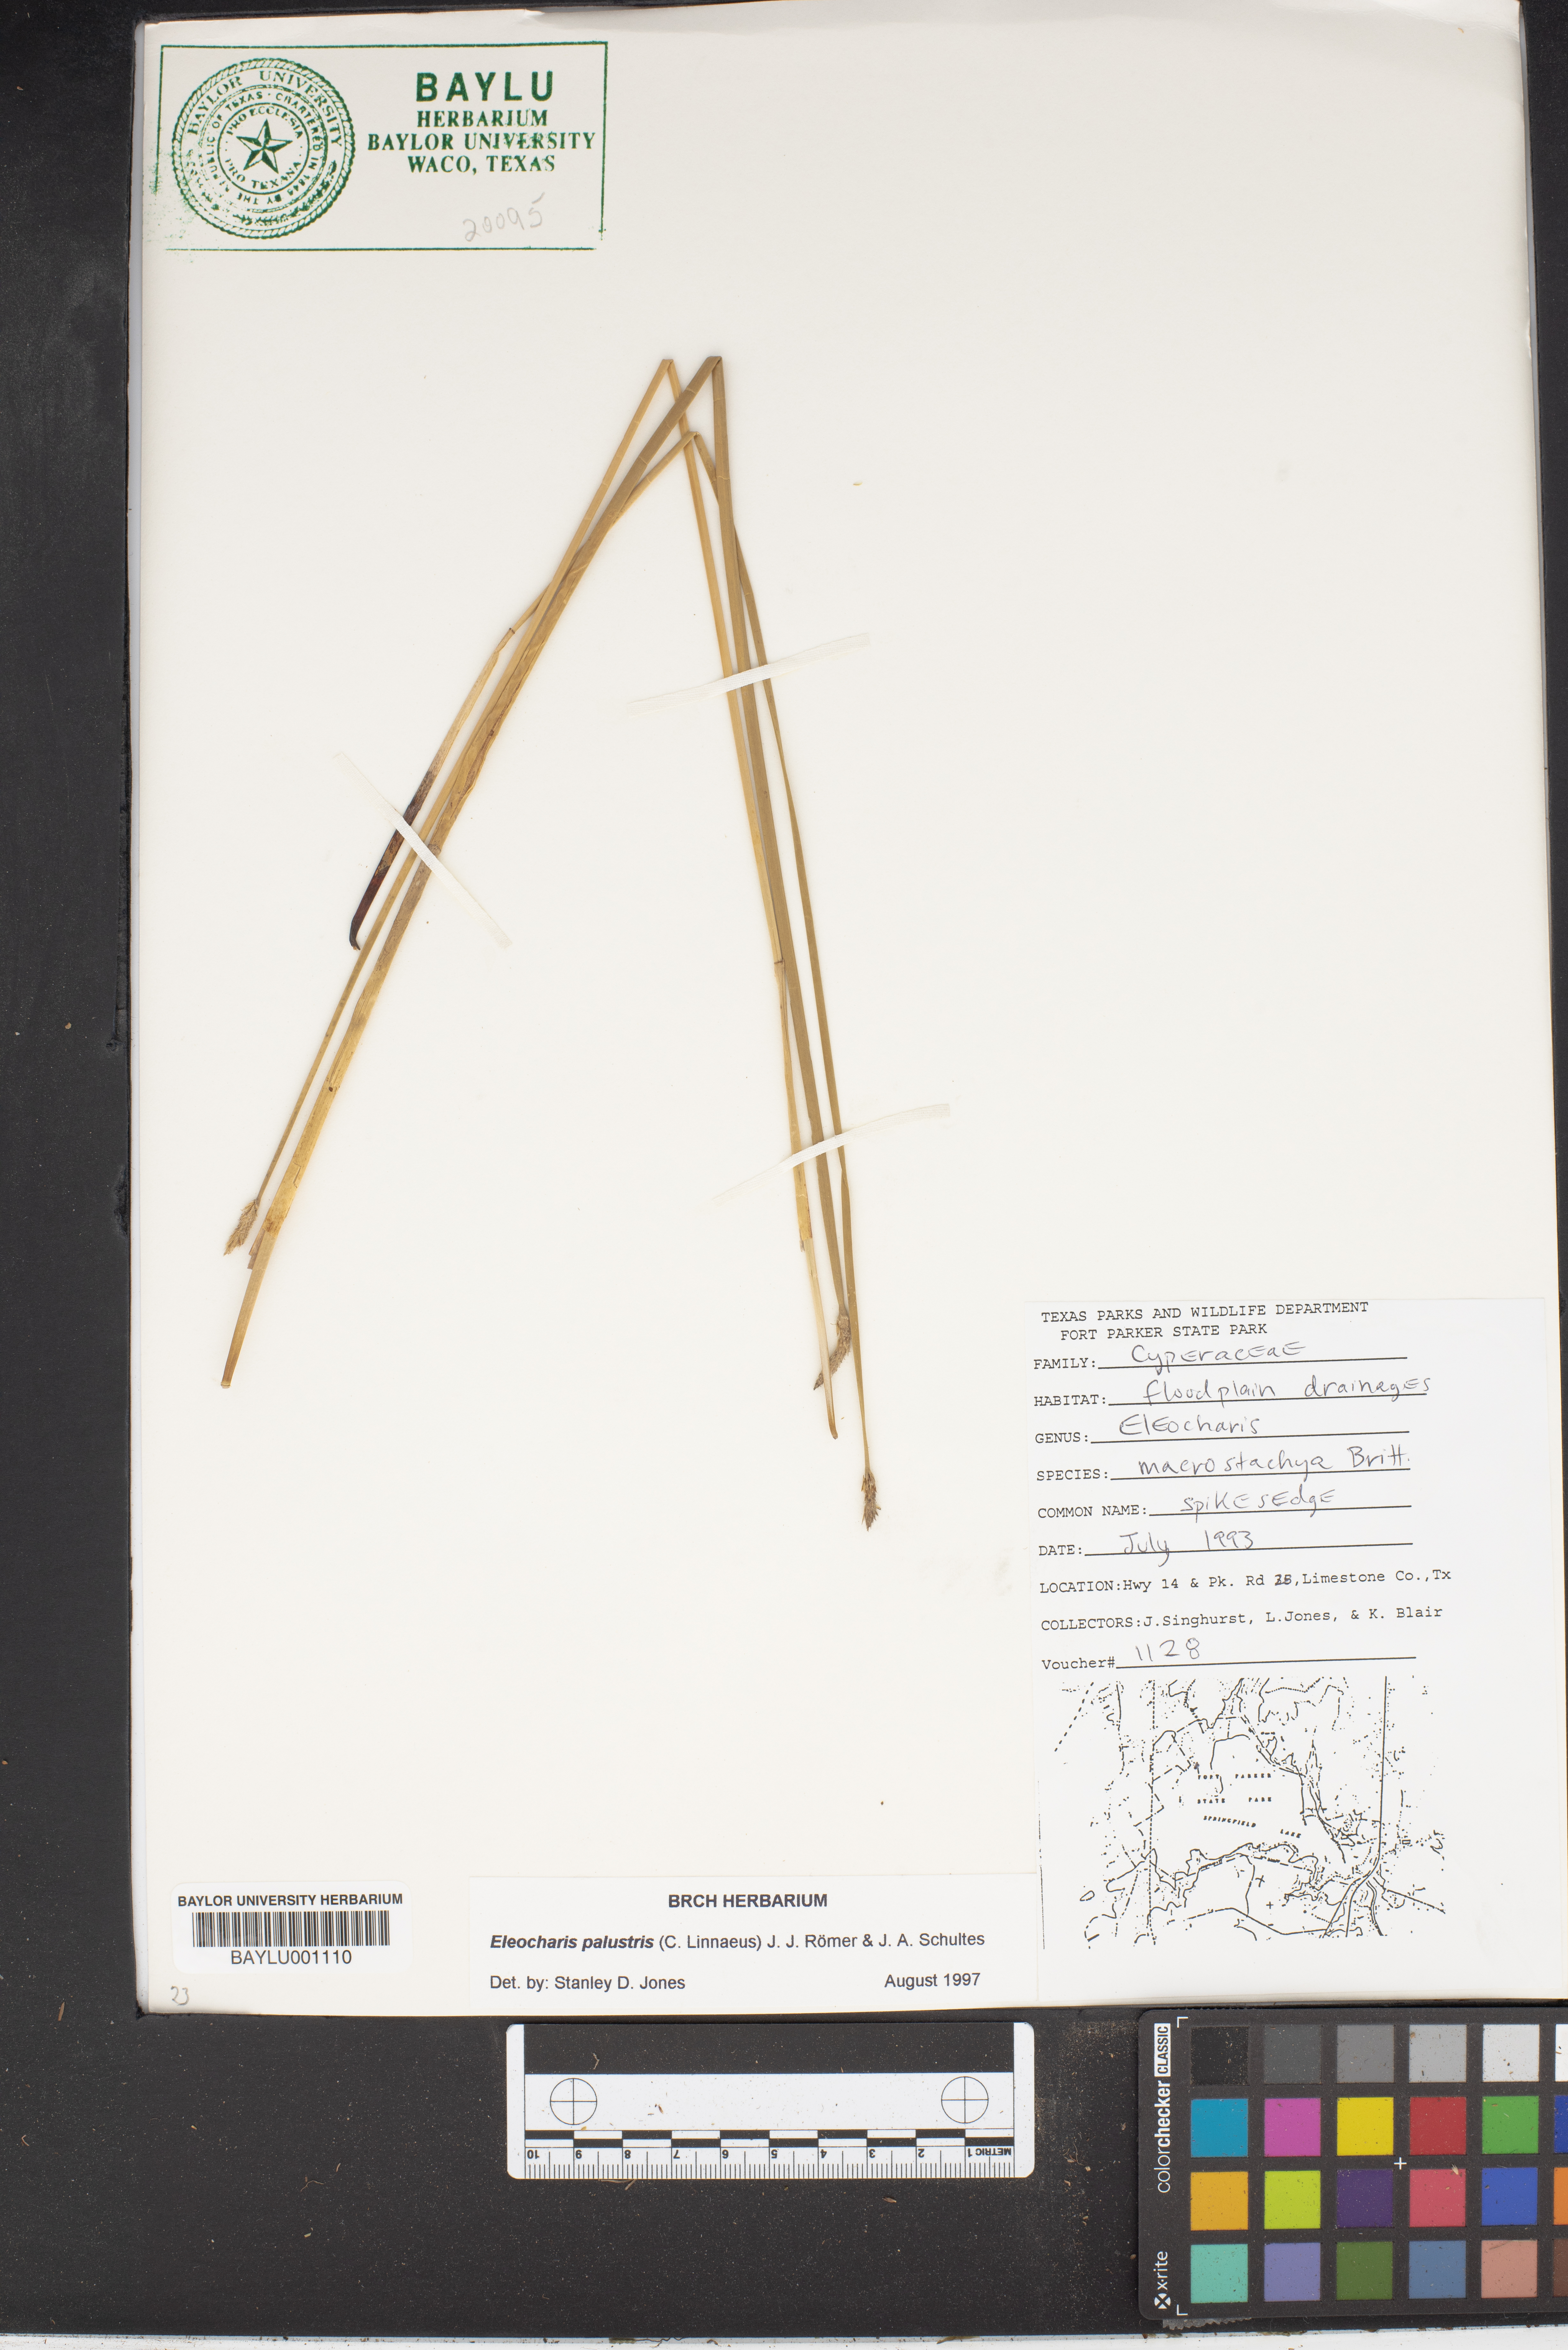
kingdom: Plantae
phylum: Tracheophyta
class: Liliopsida
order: Poales
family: Cyperaceae
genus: Eleocharis
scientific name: Eleocharis macrostachya
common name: Pale spikerush
